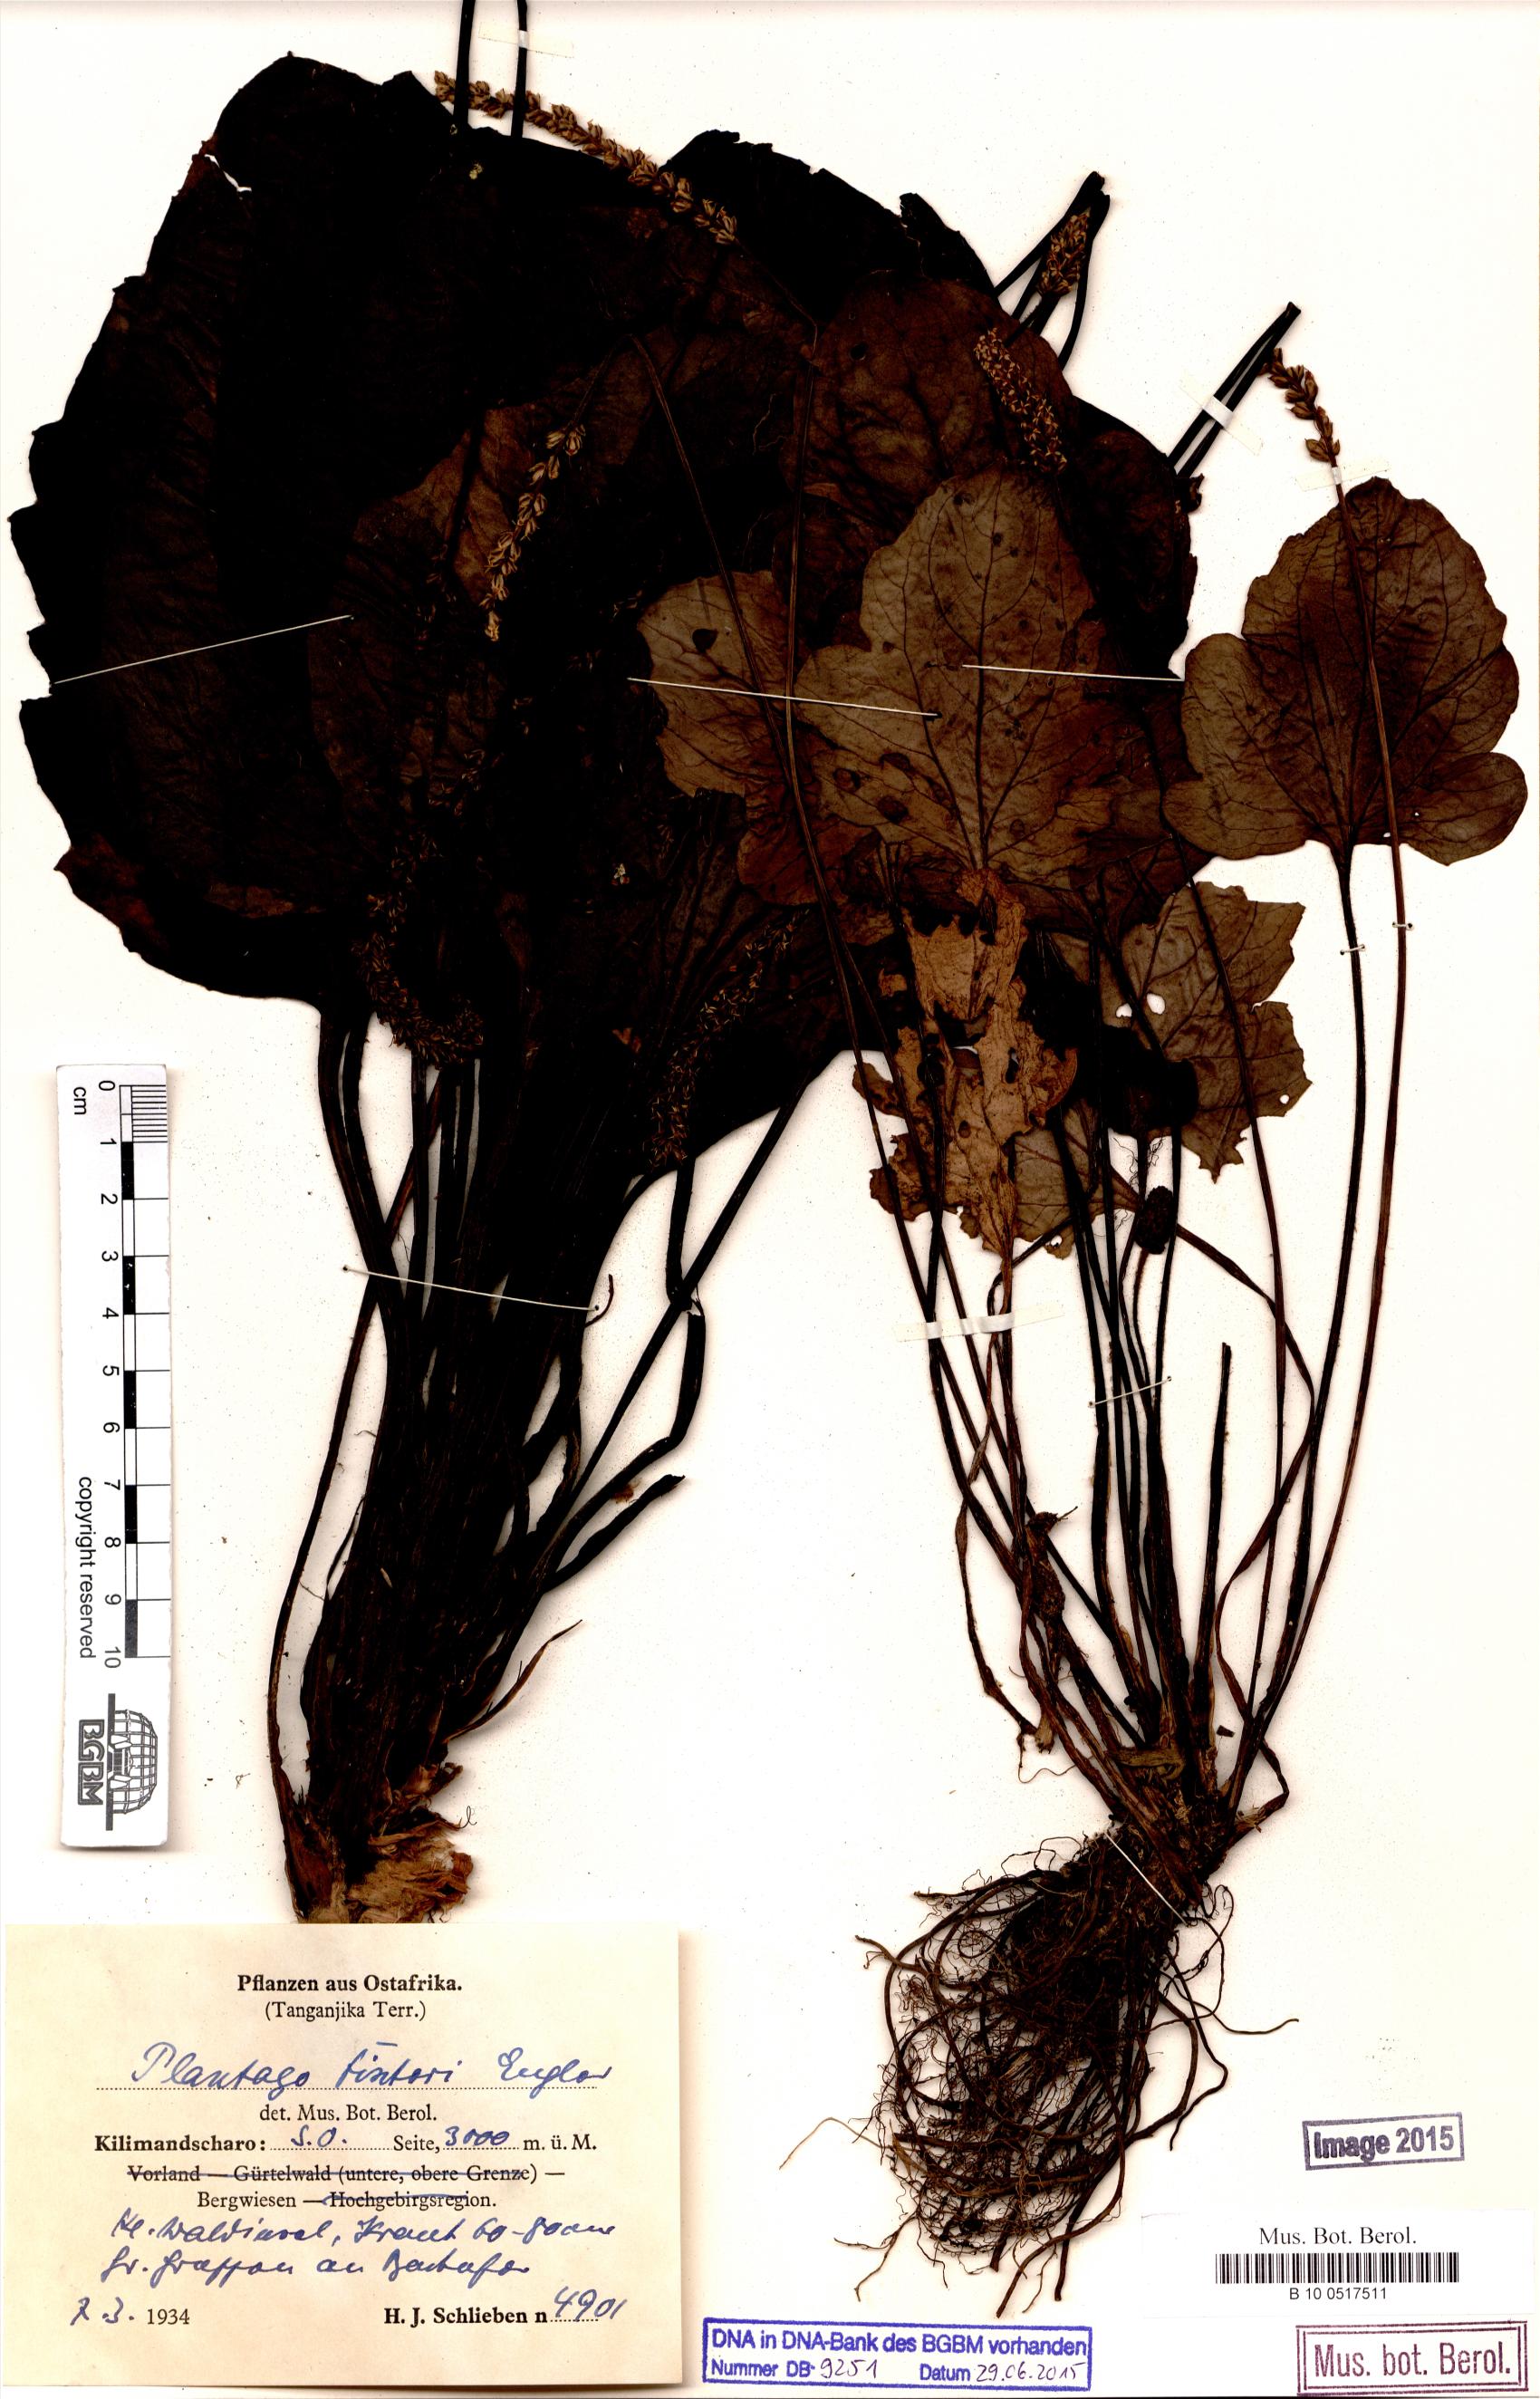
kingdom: Plantae
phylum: Tracheophyta
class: Magnoliopsida
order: Lamiales
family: Plantaginaceae
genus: Plantago
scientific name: Plantago
